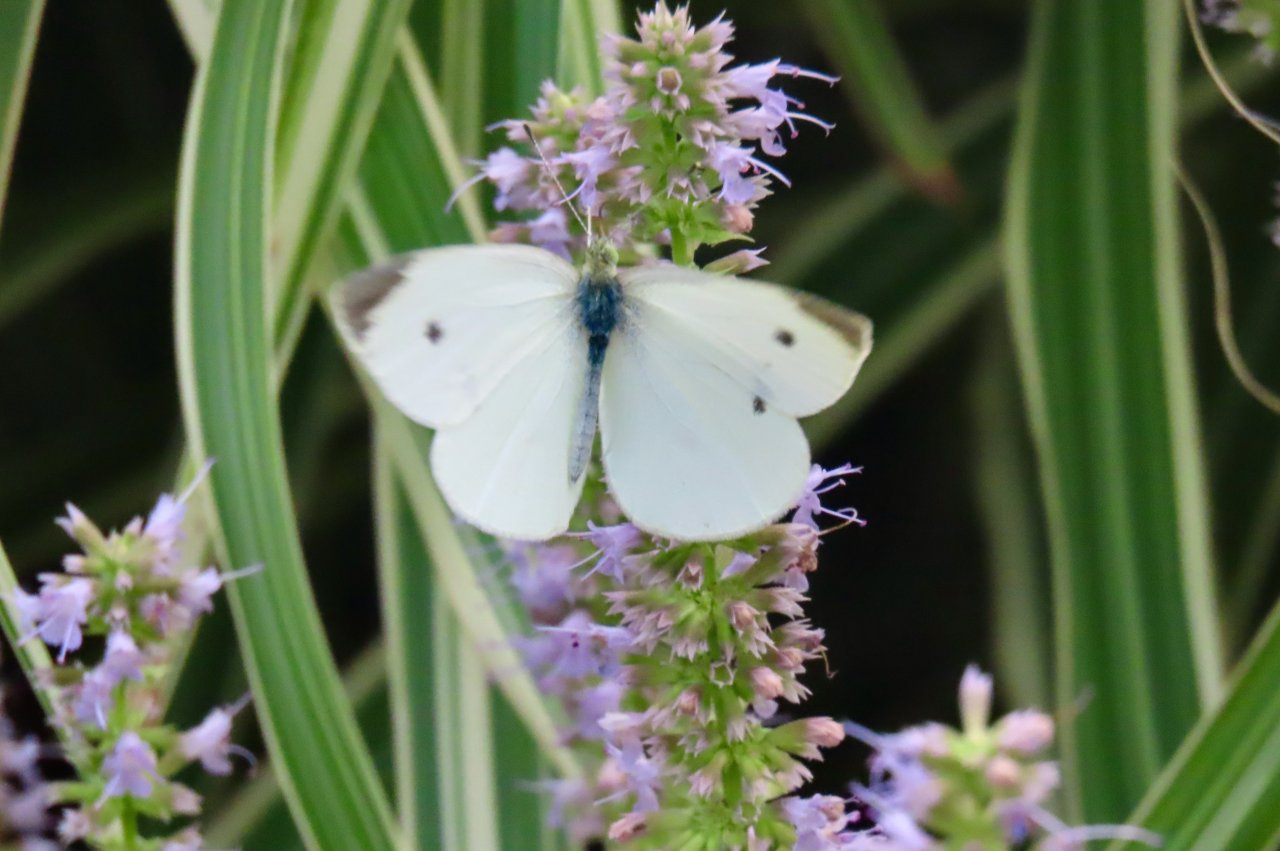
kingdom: Animalia
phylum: Arthropoda
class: Insecta
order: Lepidoptera
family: Pieridae
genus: Pieris
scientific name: Pieris rapae
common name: Cabbage White
